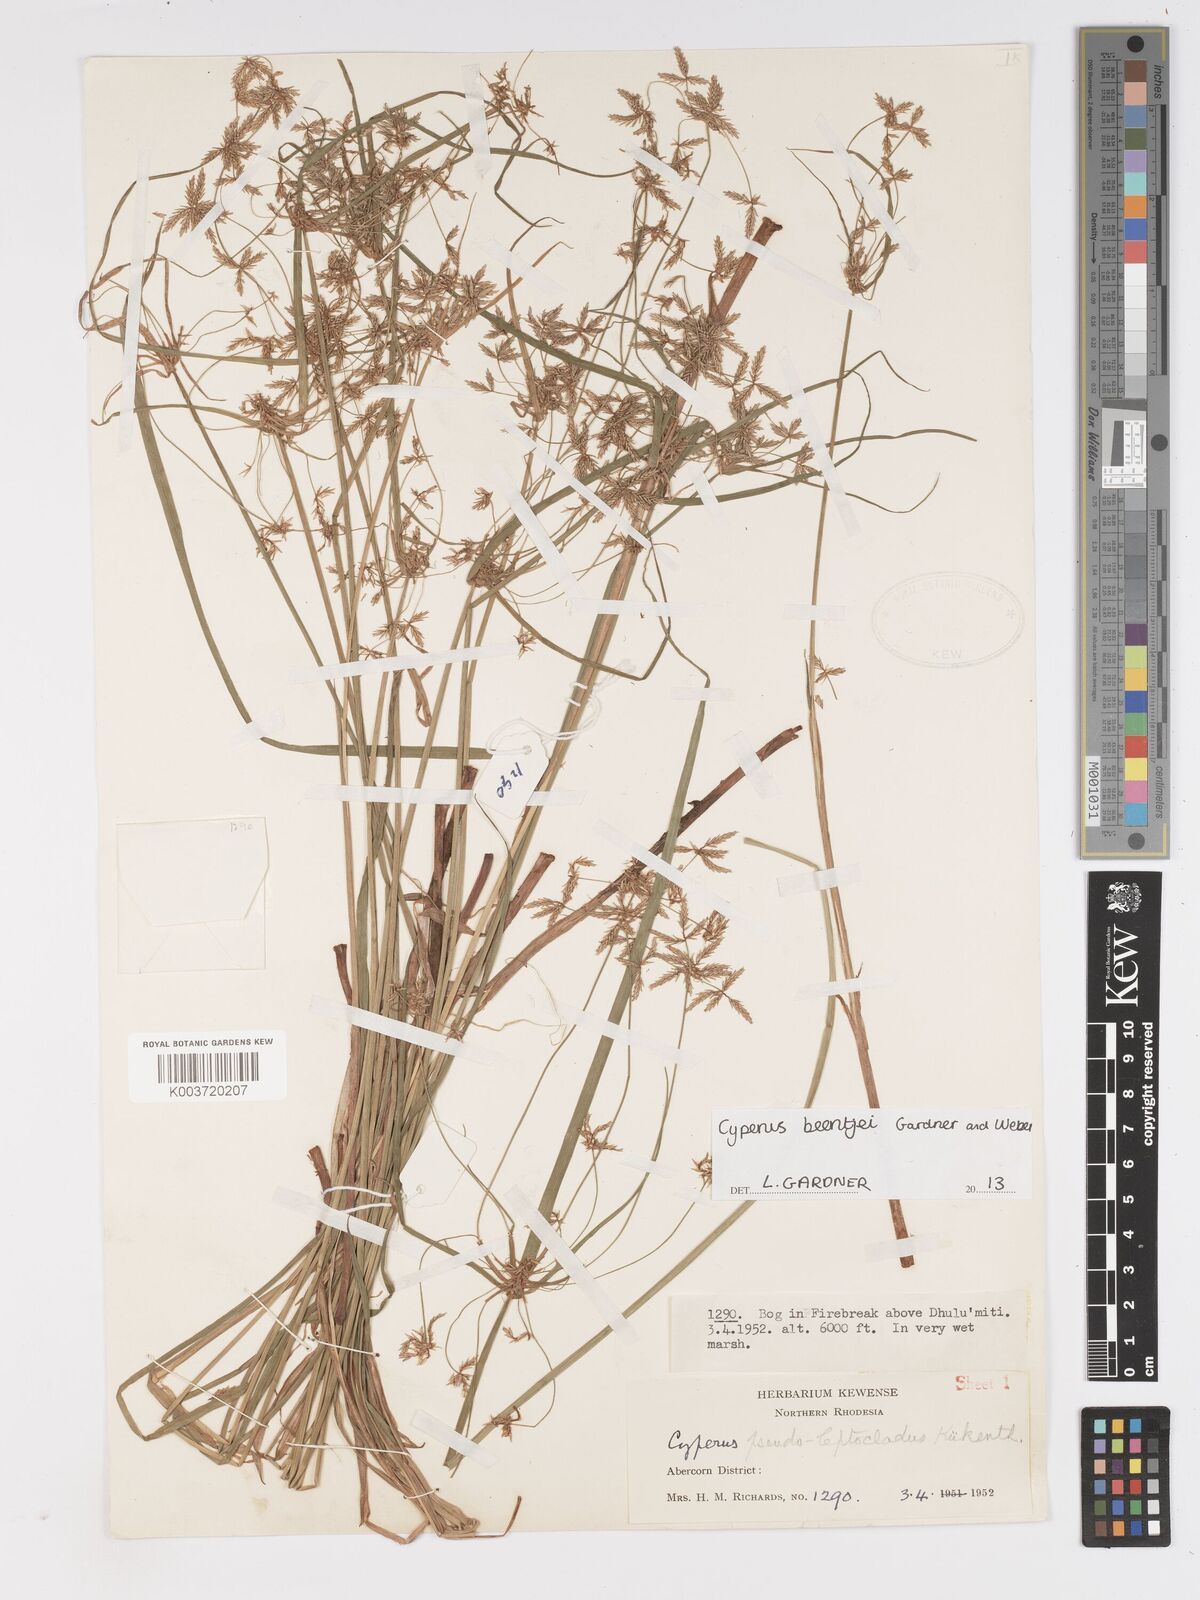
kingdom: Plantae
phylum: Tracheophyta
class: Liliopsida
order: Poales
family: Cyperaceae
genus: Cyperus
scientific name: Cyperus beentjei
